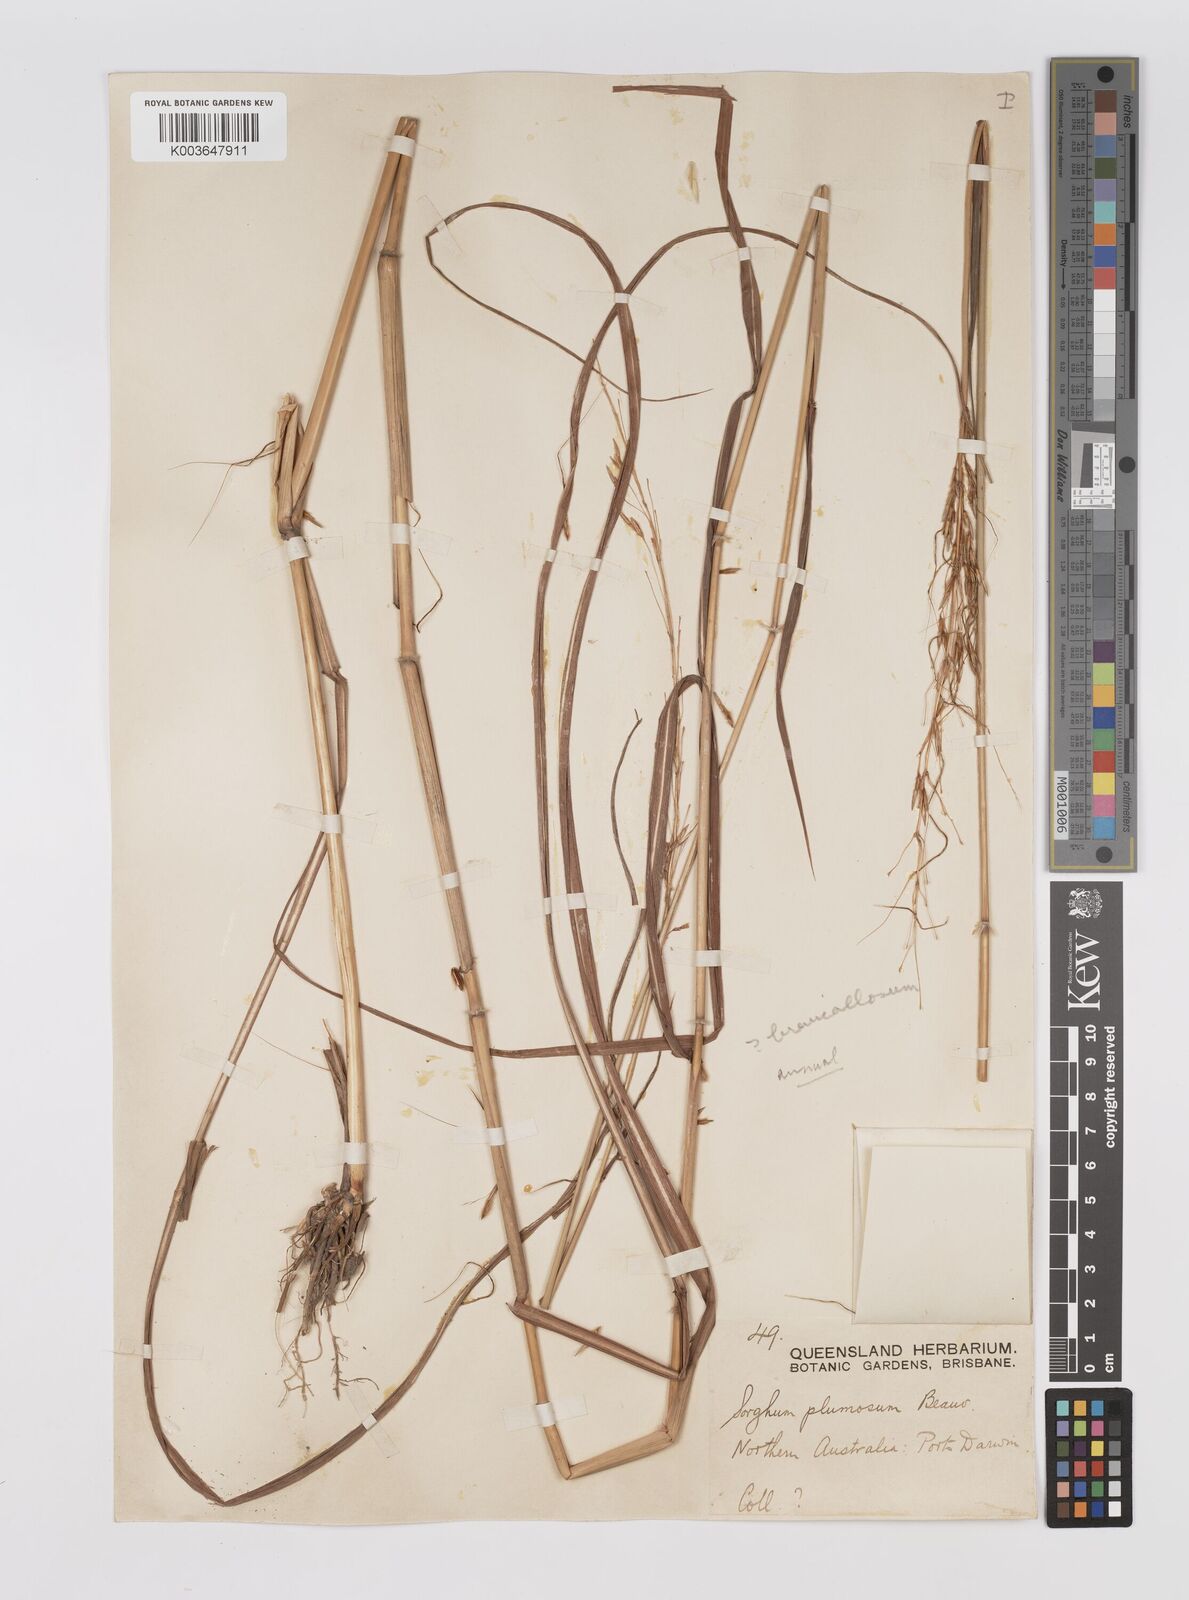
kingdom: Plantae
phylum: Tracheophyta
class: Liliopsida
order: Poales
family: Poaceae
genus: Sarga
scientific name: Sarga timorensis
